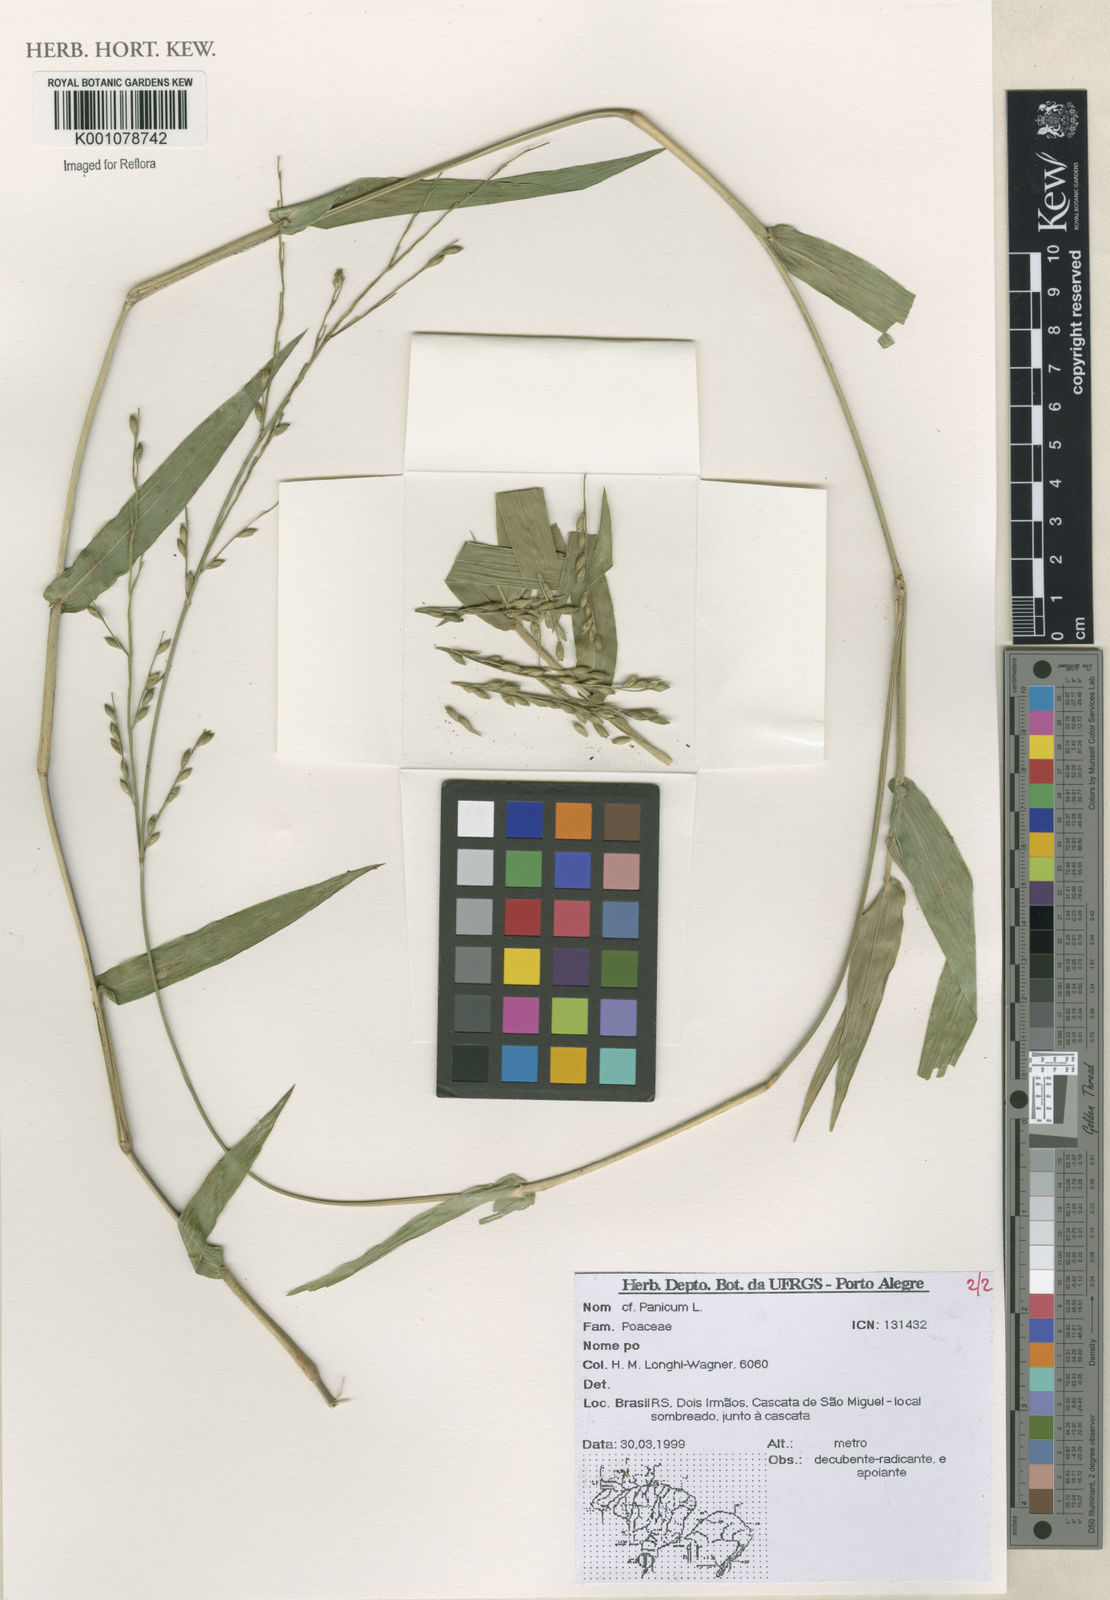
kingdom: Plantae
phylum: Tracheophyta
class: Liliopsida
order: Poales
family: Poaceae
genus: Panicum
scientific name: Panicum
